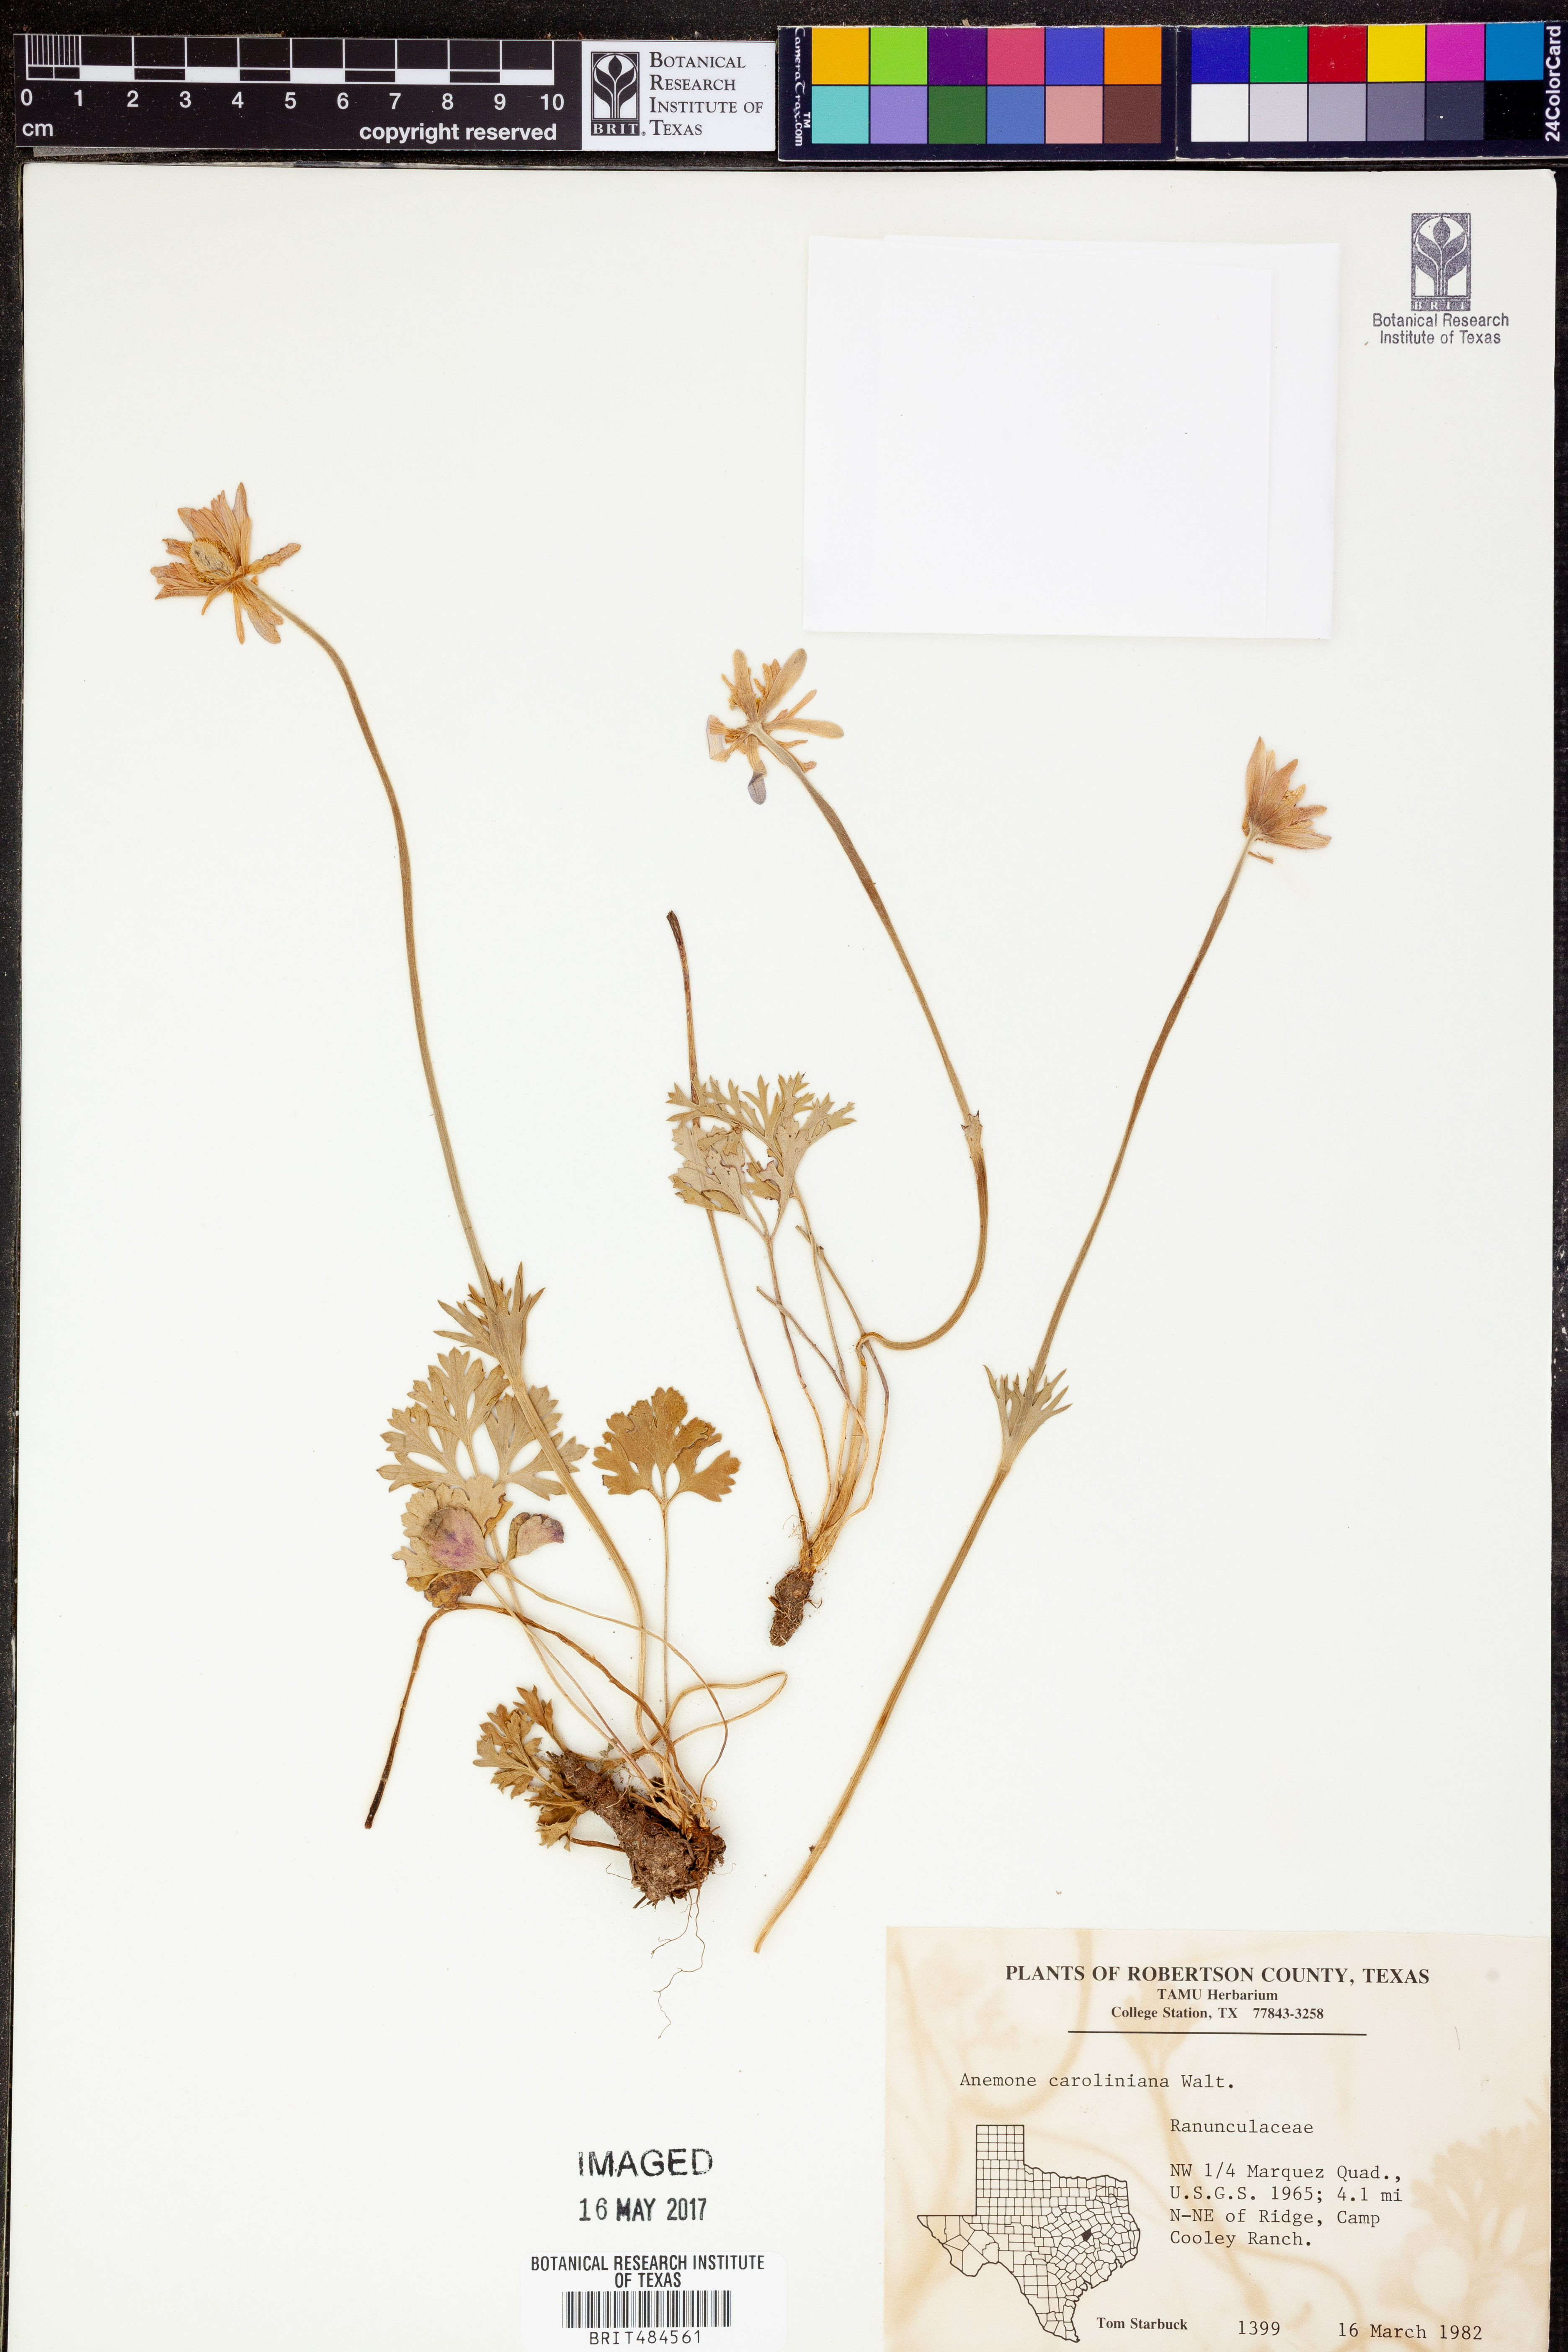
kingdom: Plantae
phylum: Tracheophyta
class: Magnoliopsida
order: Ranunculales
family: Ranunculaceae
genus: Anemone
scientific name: Anemone caroliniana
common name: Carolina anemone
